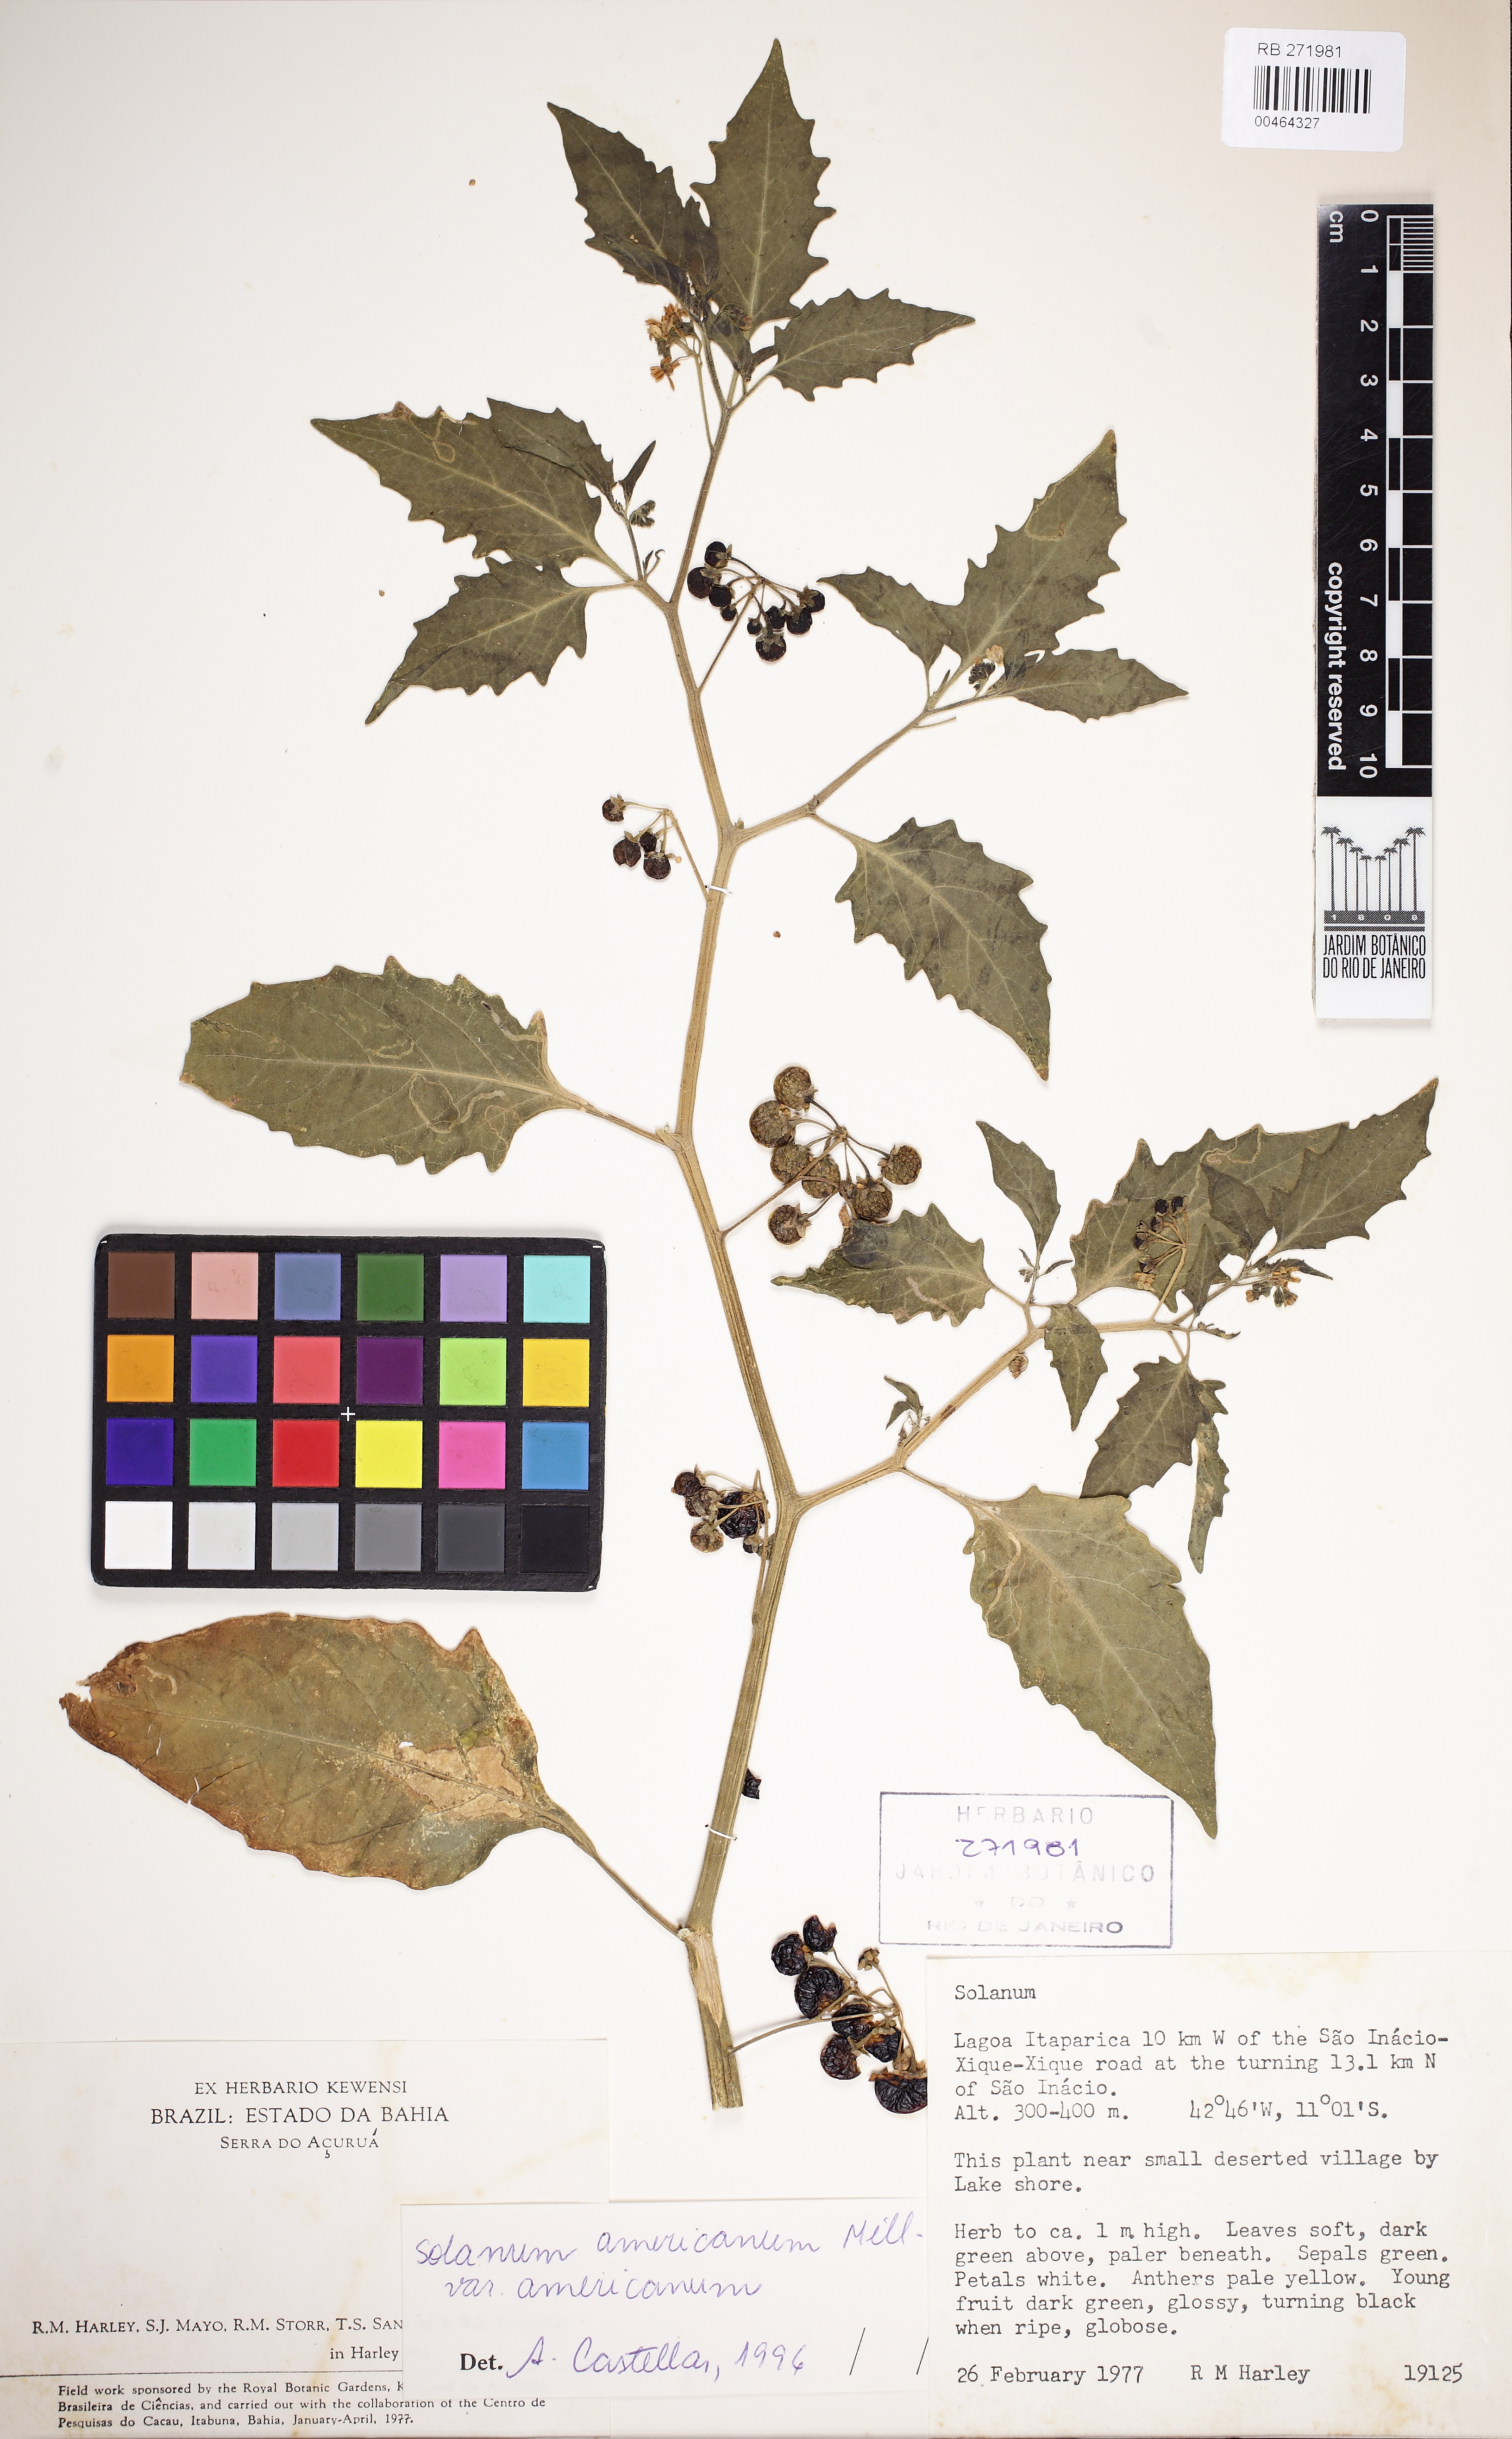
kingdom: Plantae
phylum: Tracheophyta
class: Magnoliopsida
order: Solanales
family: Solanaceae
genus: Solanum
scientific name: Solanum caatingae
